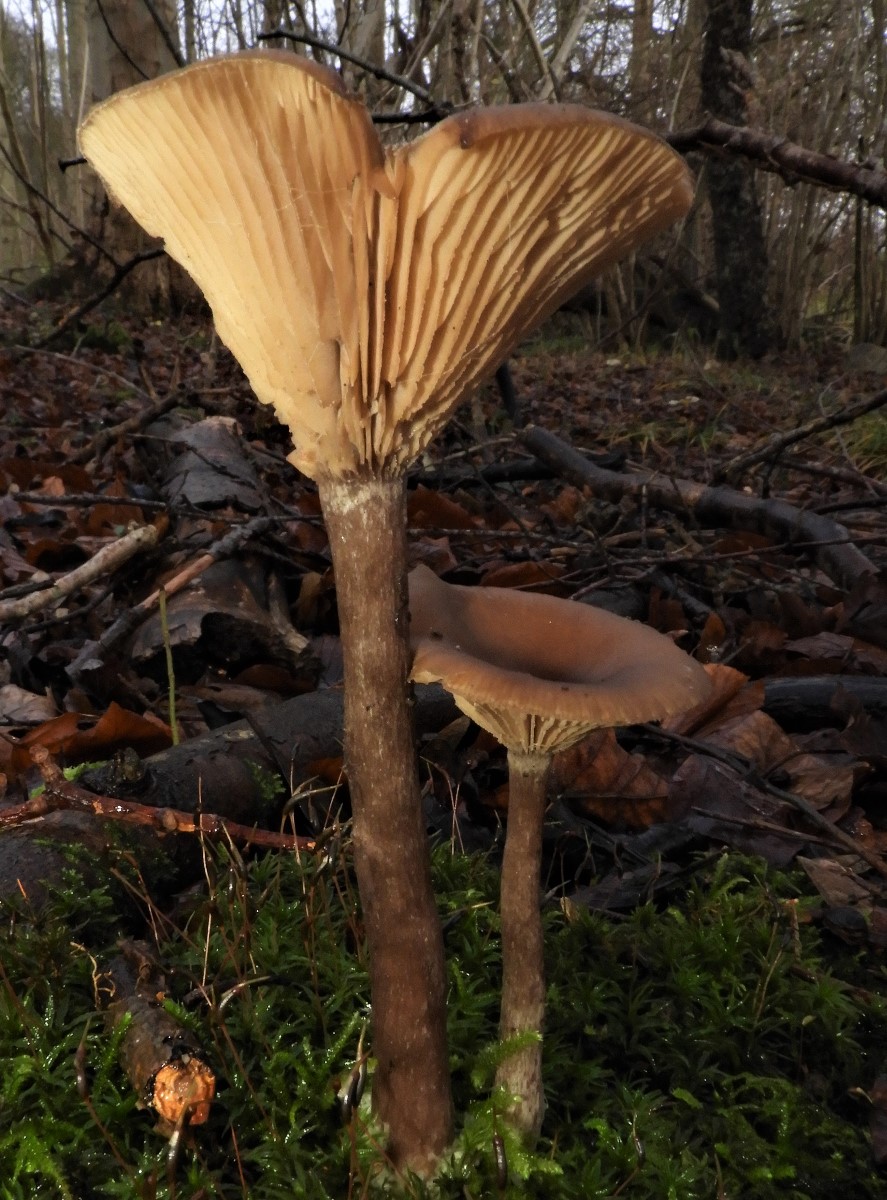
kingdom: Fungi
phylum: Basidiomycota
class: Agaricomycetes
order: Agaricales
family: Pseudoclitocybaceae
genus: Pseudoclitocybe
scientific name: Pseudoclitocybe cyathiformis
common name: almindelig bægertragthat
